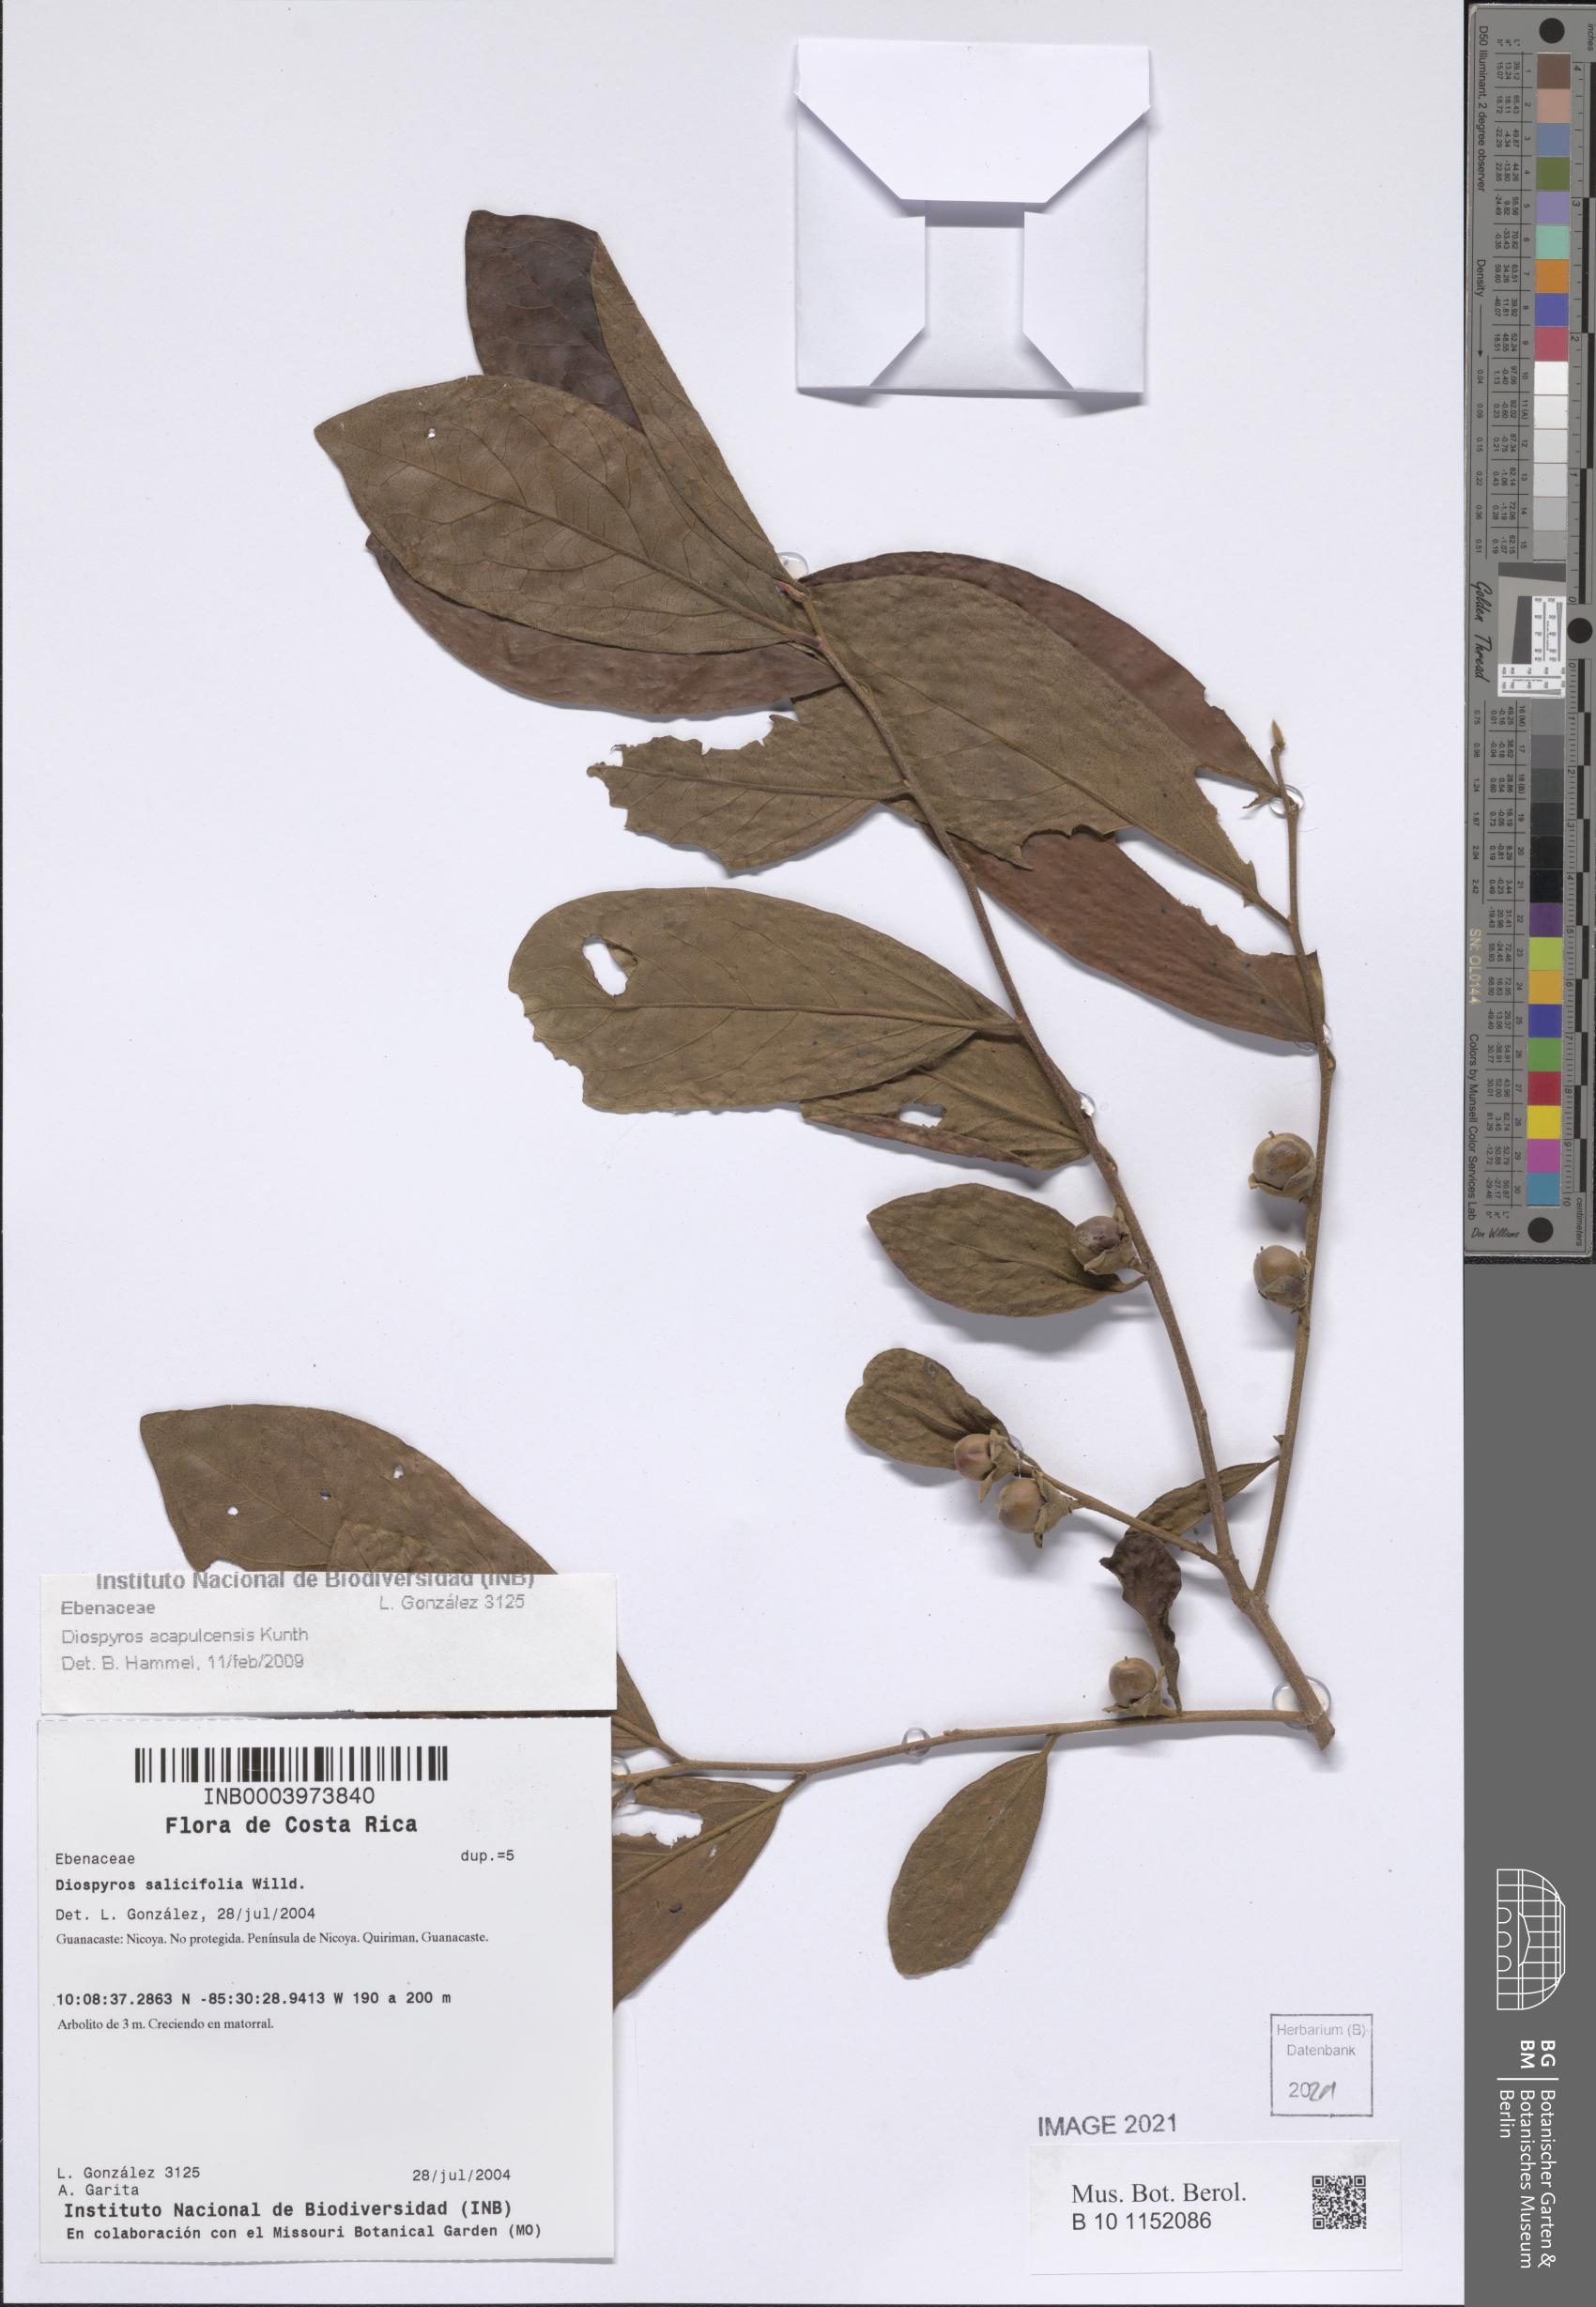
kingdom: Plantae
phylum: Tracheophyta
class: Magnoliopsida
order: Ericales
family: Ebenaceae
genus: Diospyros
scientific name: Diospyros acapulcensis
